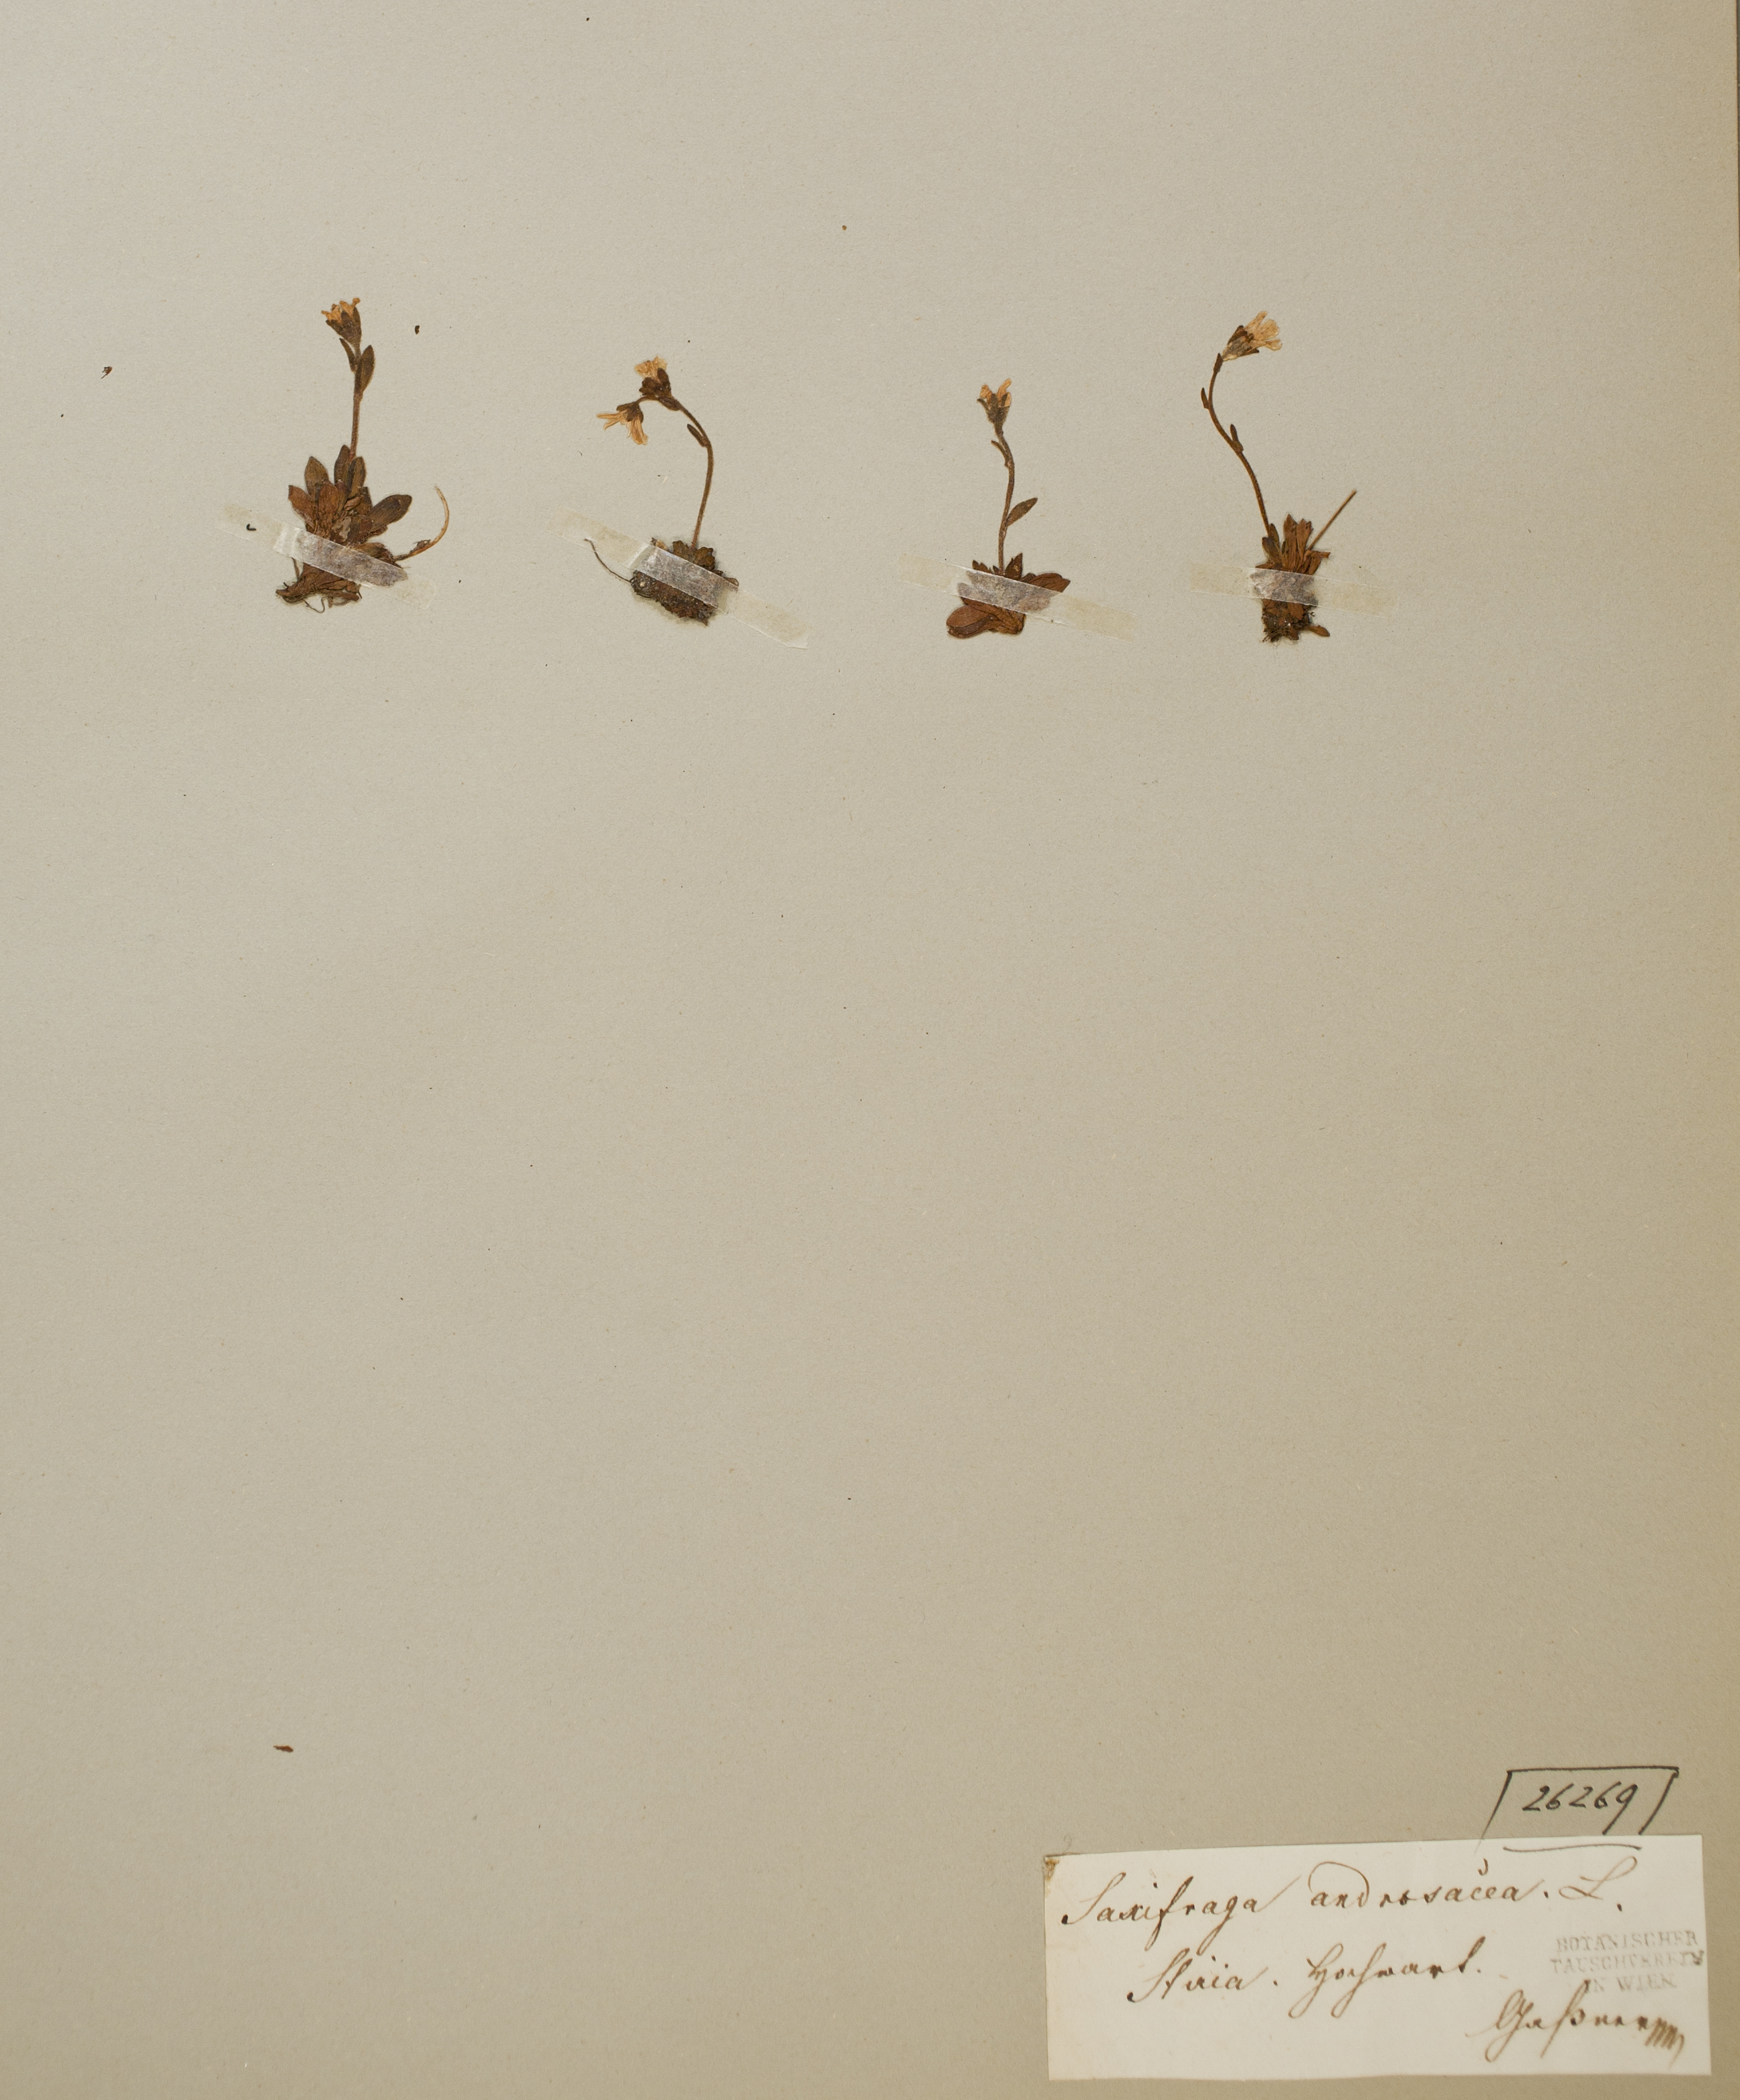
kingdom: Plantae
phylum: Tracheophyta
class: Magnoliopsida
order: Saxifragales
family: Saxifragaceae
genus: Saxifraga
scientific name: Saxifraga androsacea
